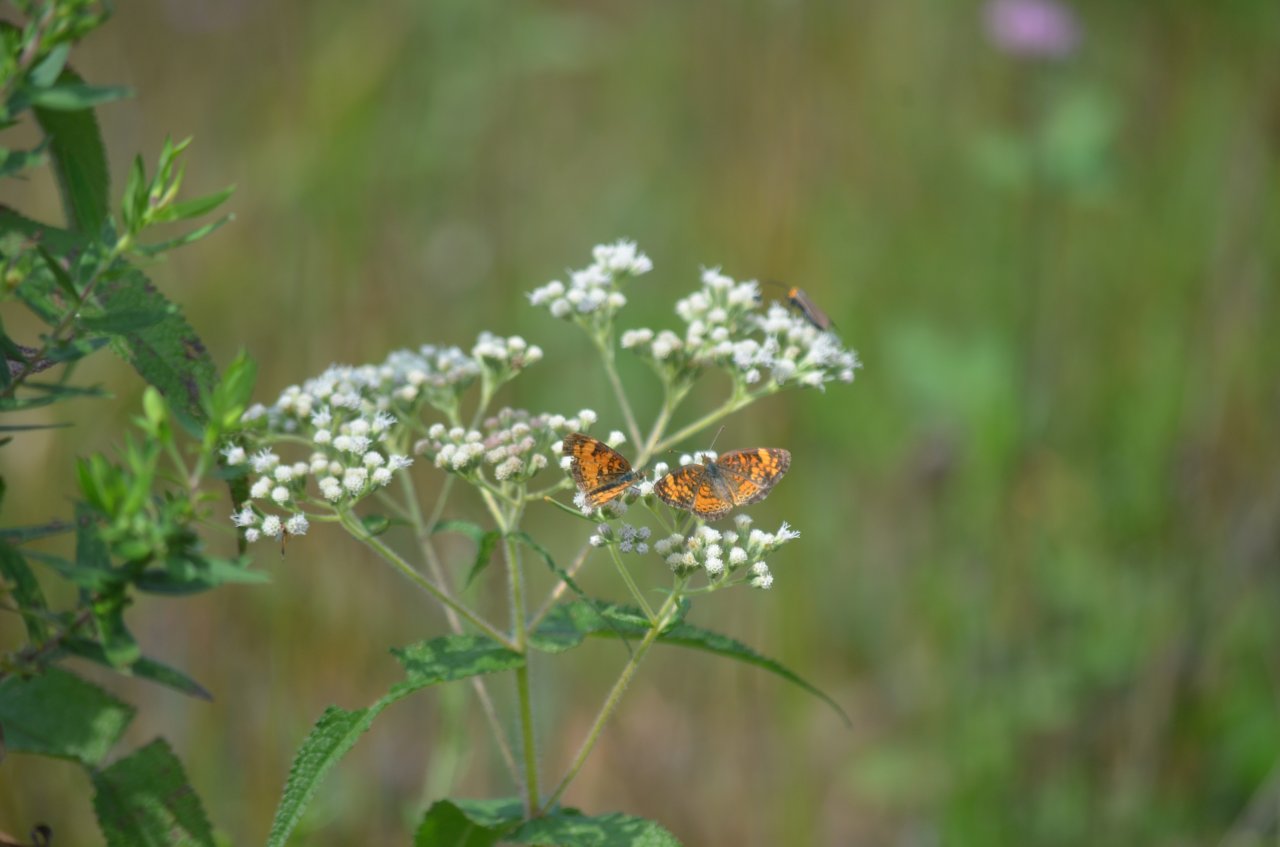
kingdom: Animalia
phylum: Arthropoda
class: Insecta
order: Lepidoptera
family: Nymphalidae
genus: Phyciodes
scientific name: Phyciodes tharos
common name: Northern Crescent
